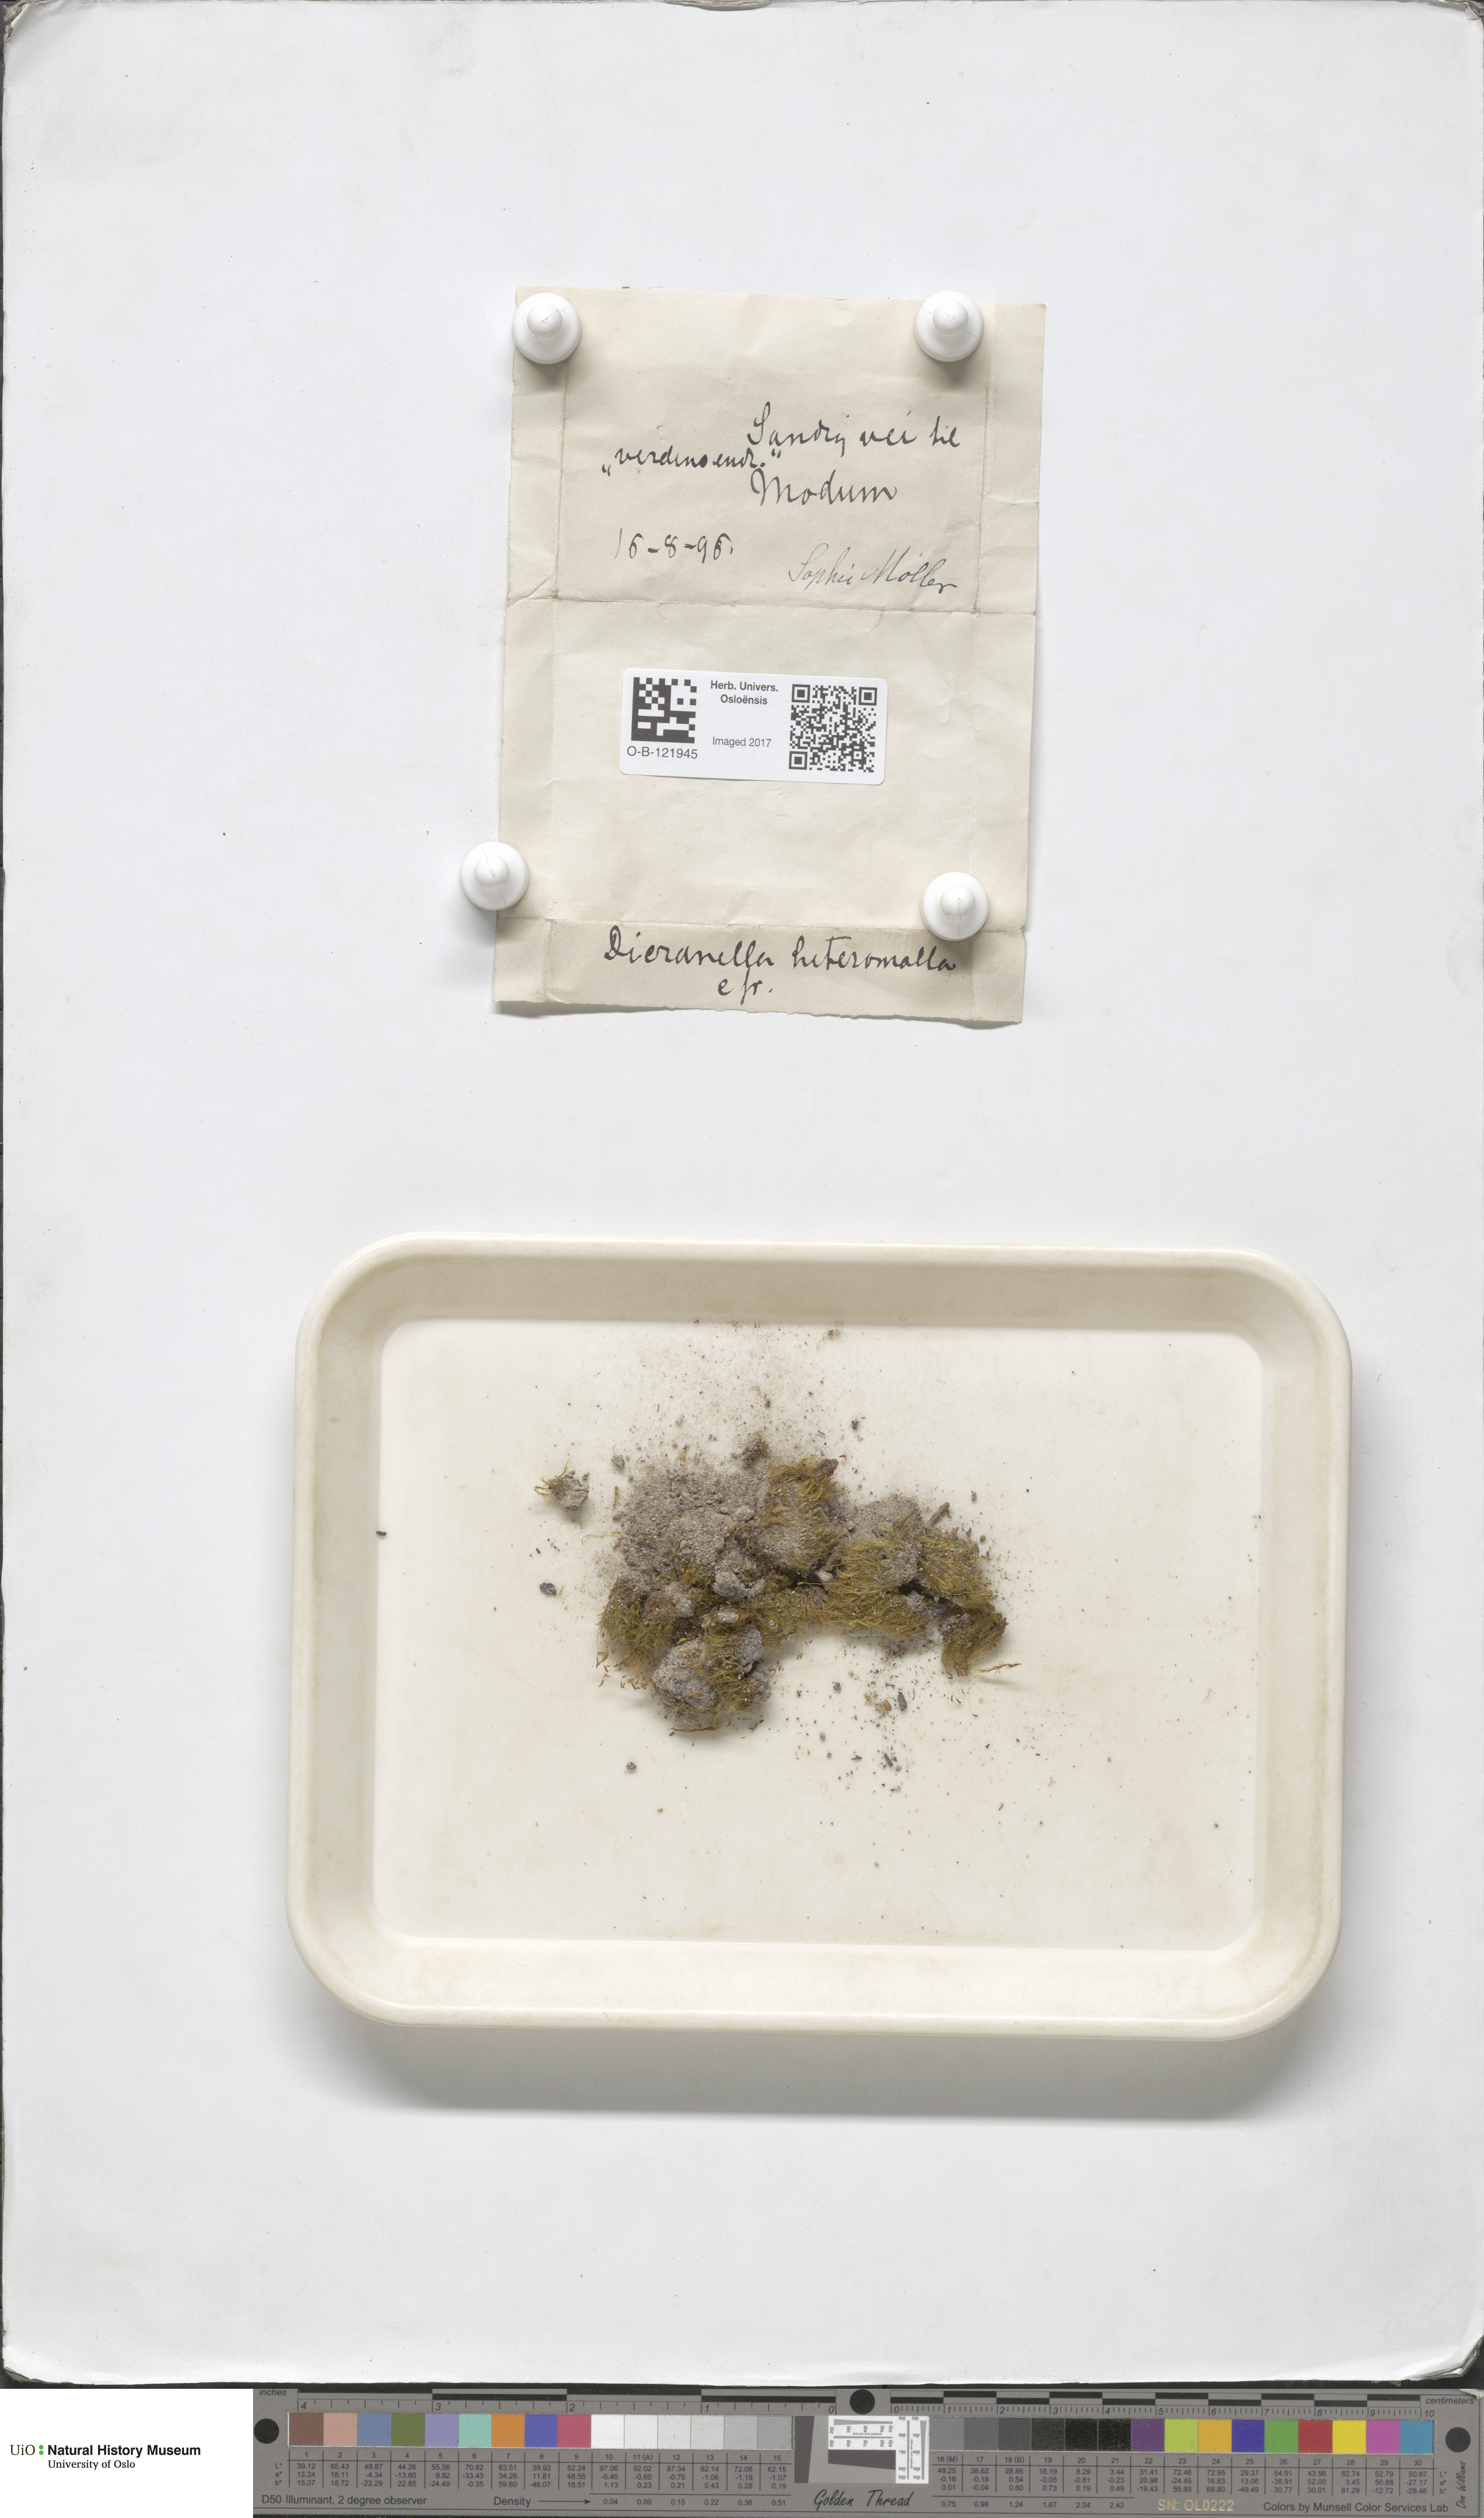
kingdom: Plantae
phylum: Bryophyta
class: Bryopsida
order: Dicranales
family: Dicranellaceae
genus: Dicranella
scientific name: Dicranella heteromalla
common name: Silky forklet moss
